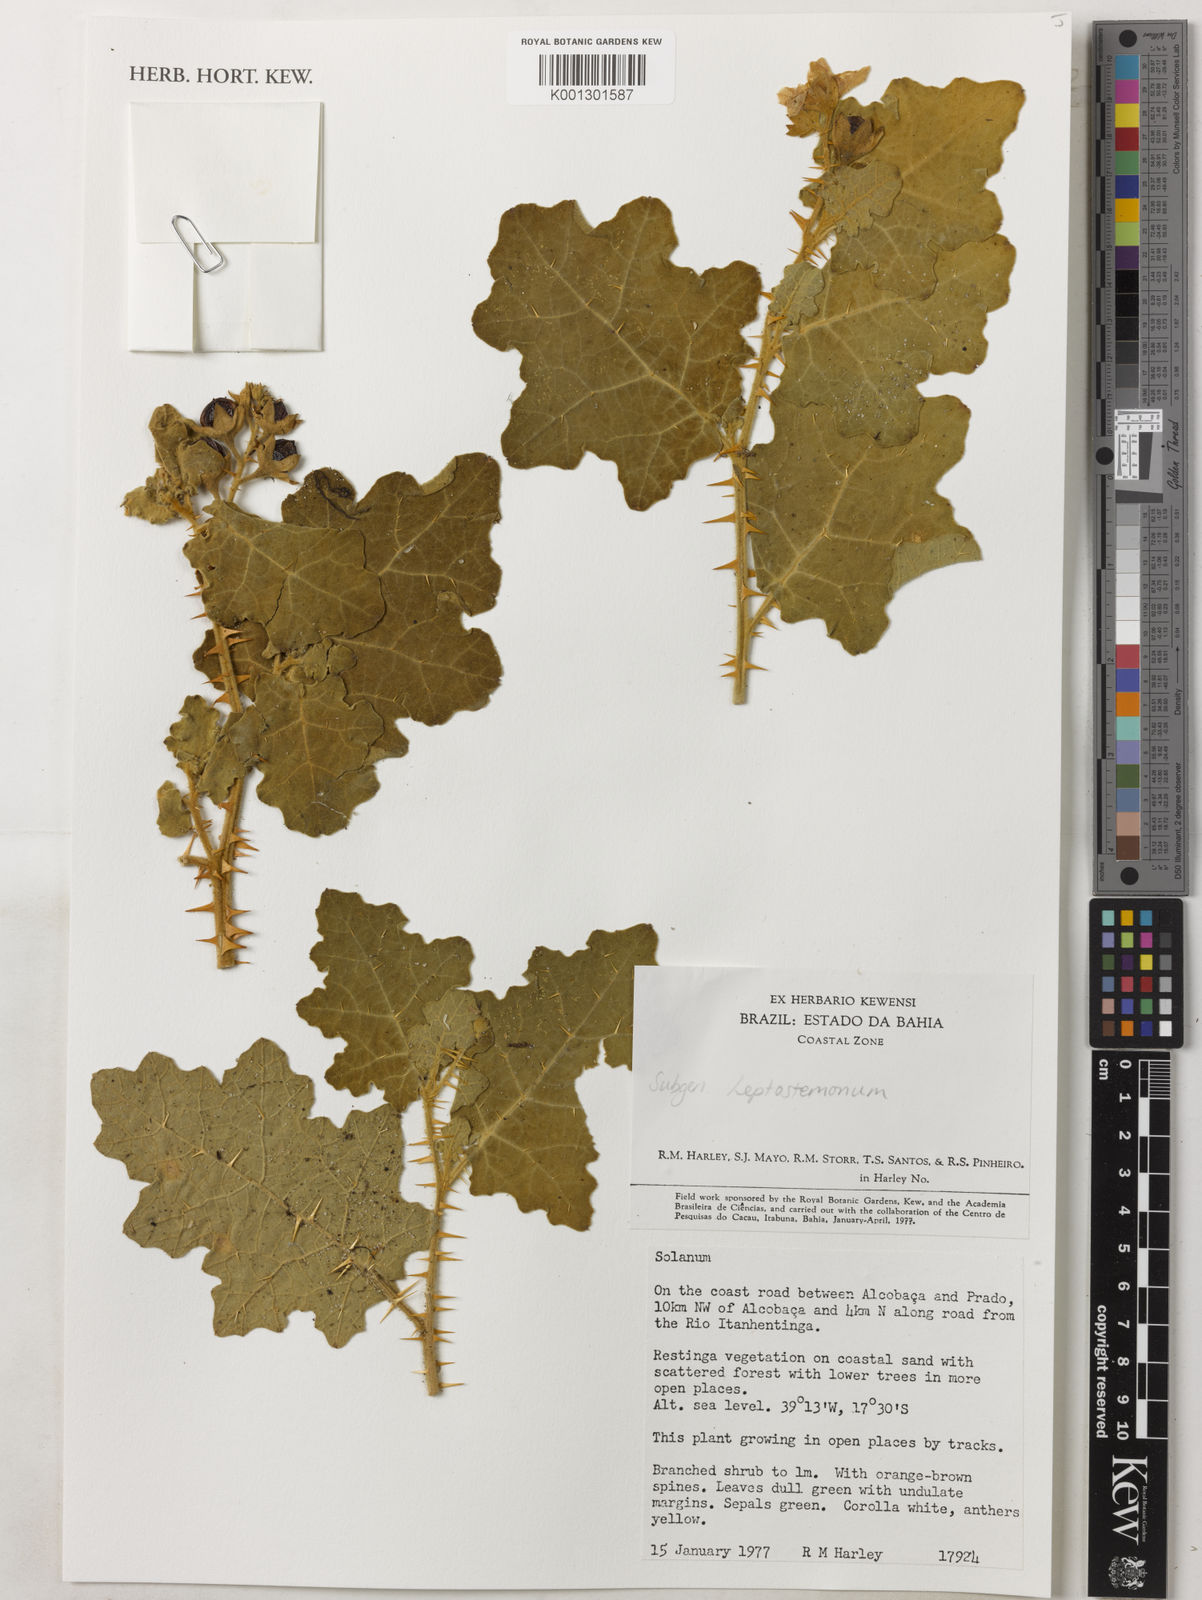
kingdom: Plantae
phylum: Tracheophyta
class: Magnoliopsida
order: Solanales
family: Solanaceae
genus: Solanum
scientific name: Solanum thomasiifolium
